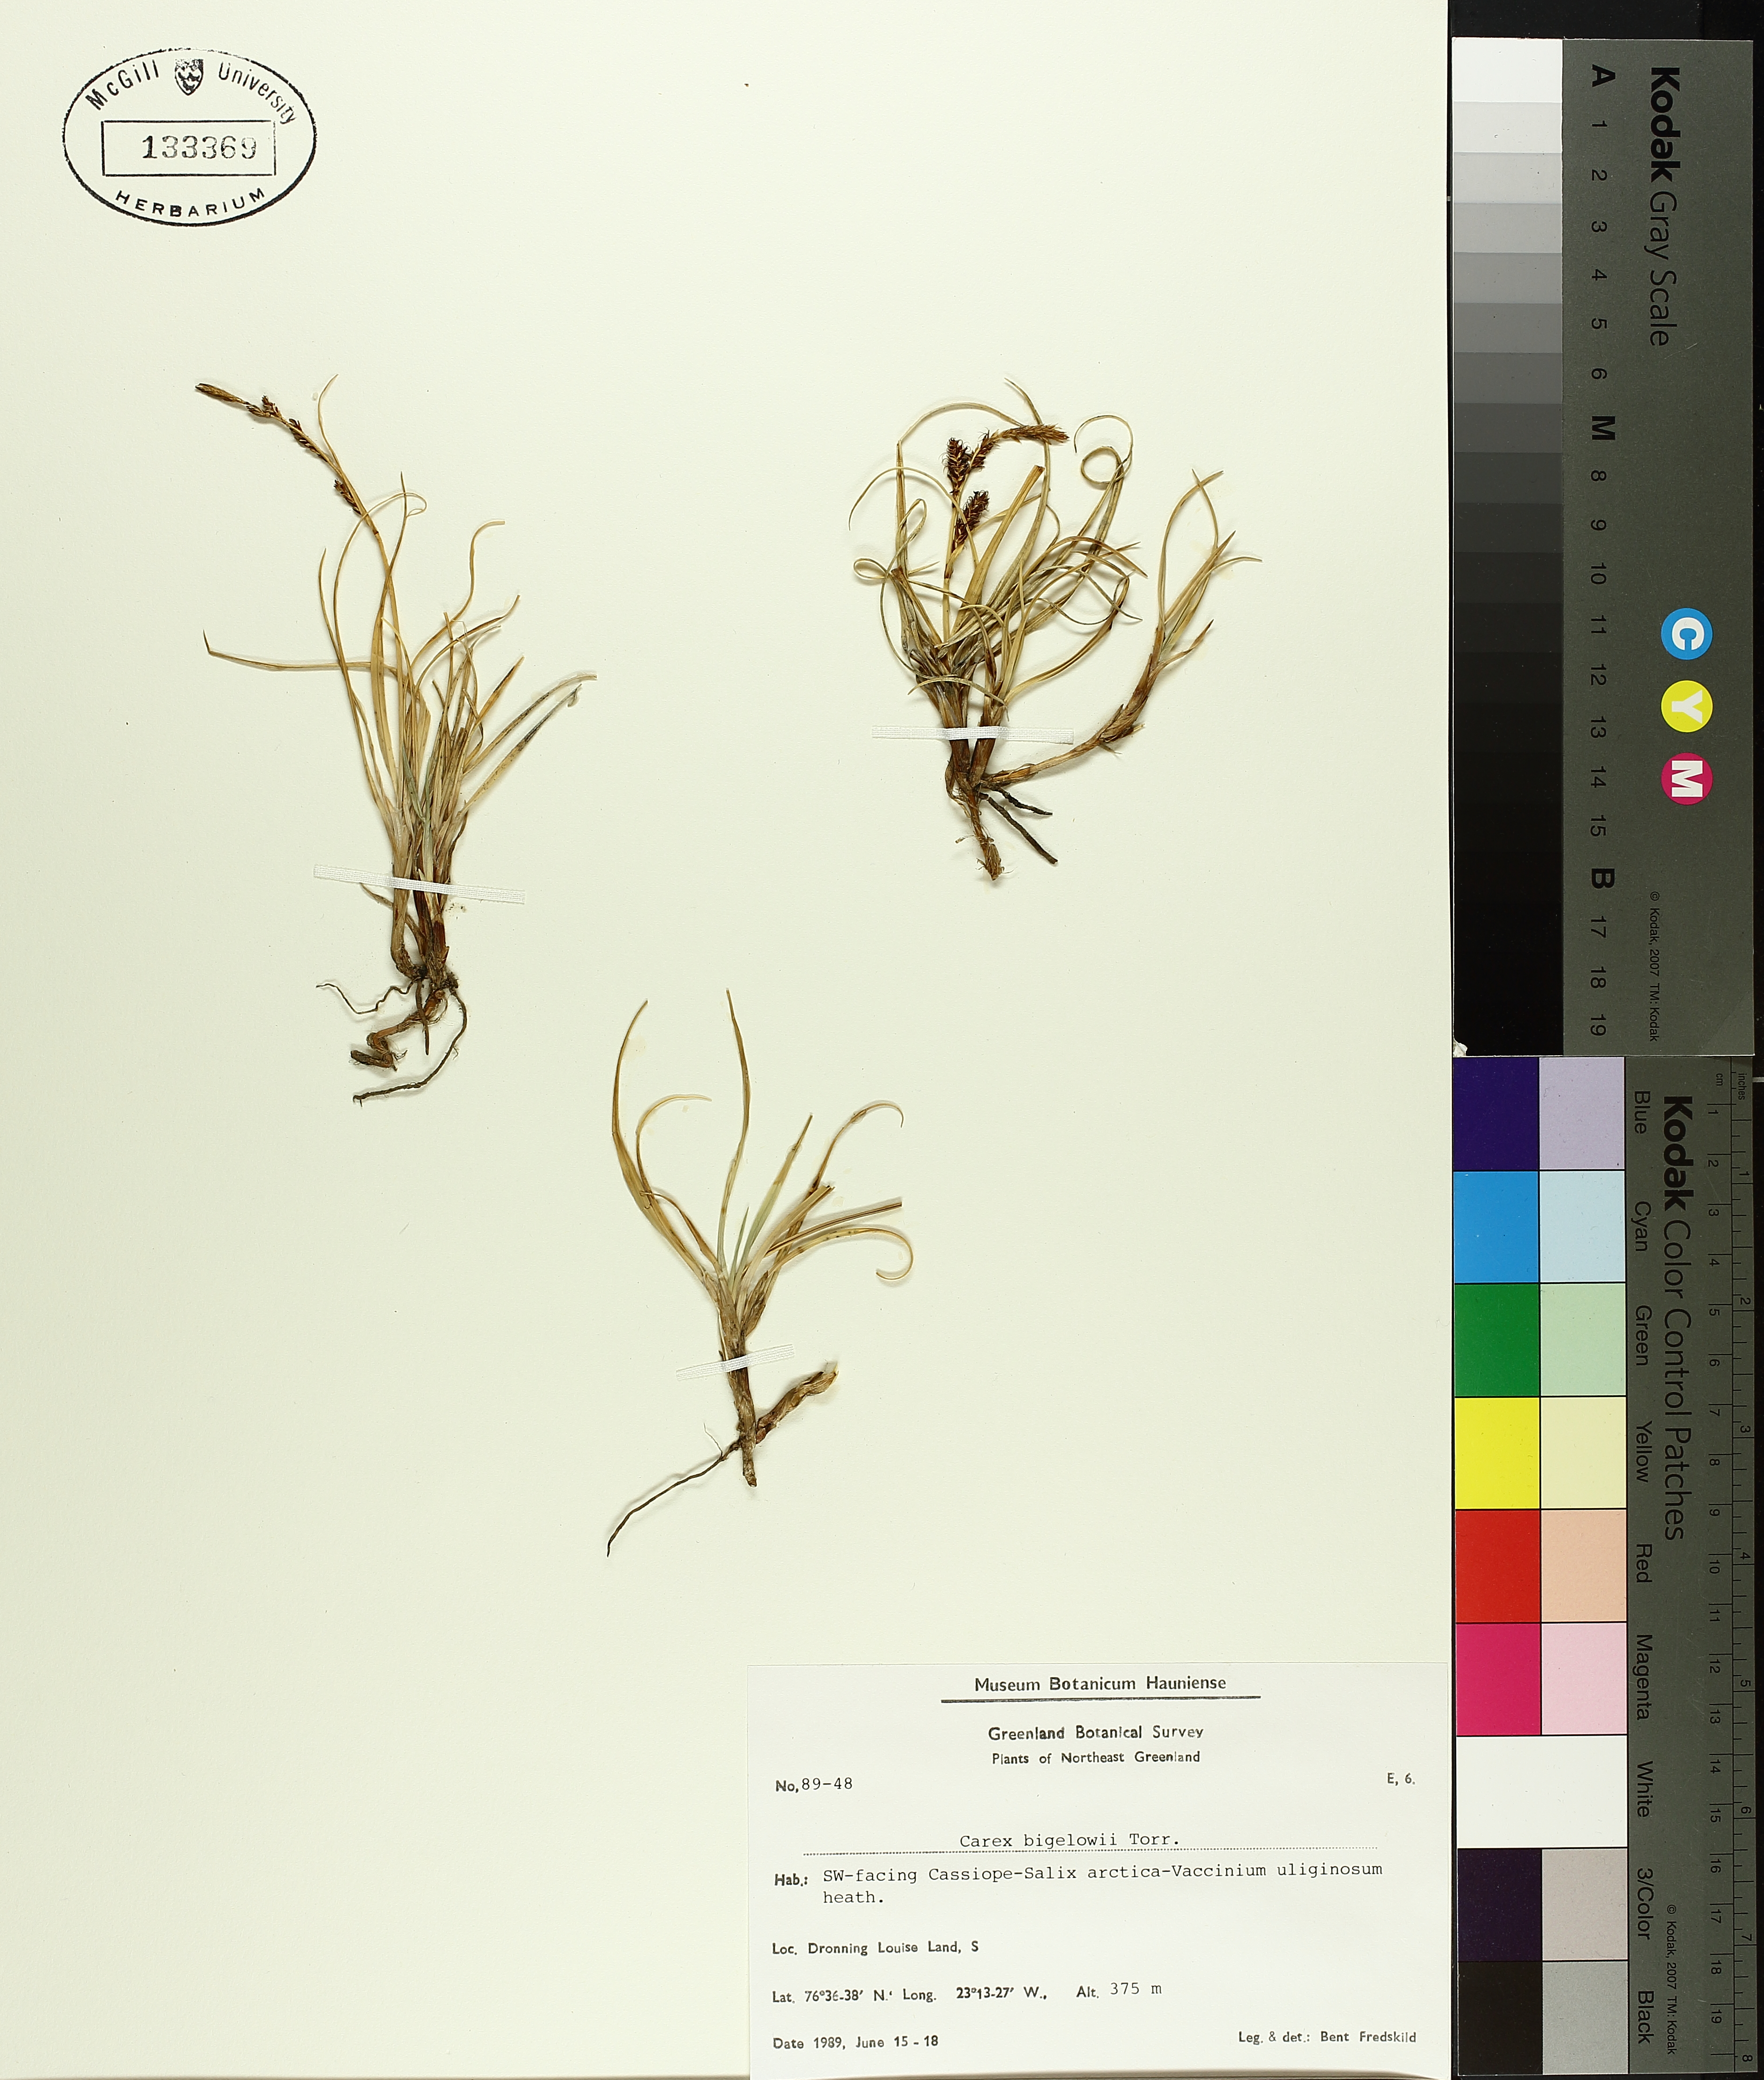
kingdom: Plantae
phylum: Tracheophyta
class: Liliopsida
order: Poales
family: Cyperaceae
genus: Carex
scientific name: Carex bigelowii
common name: Stiff sedge
